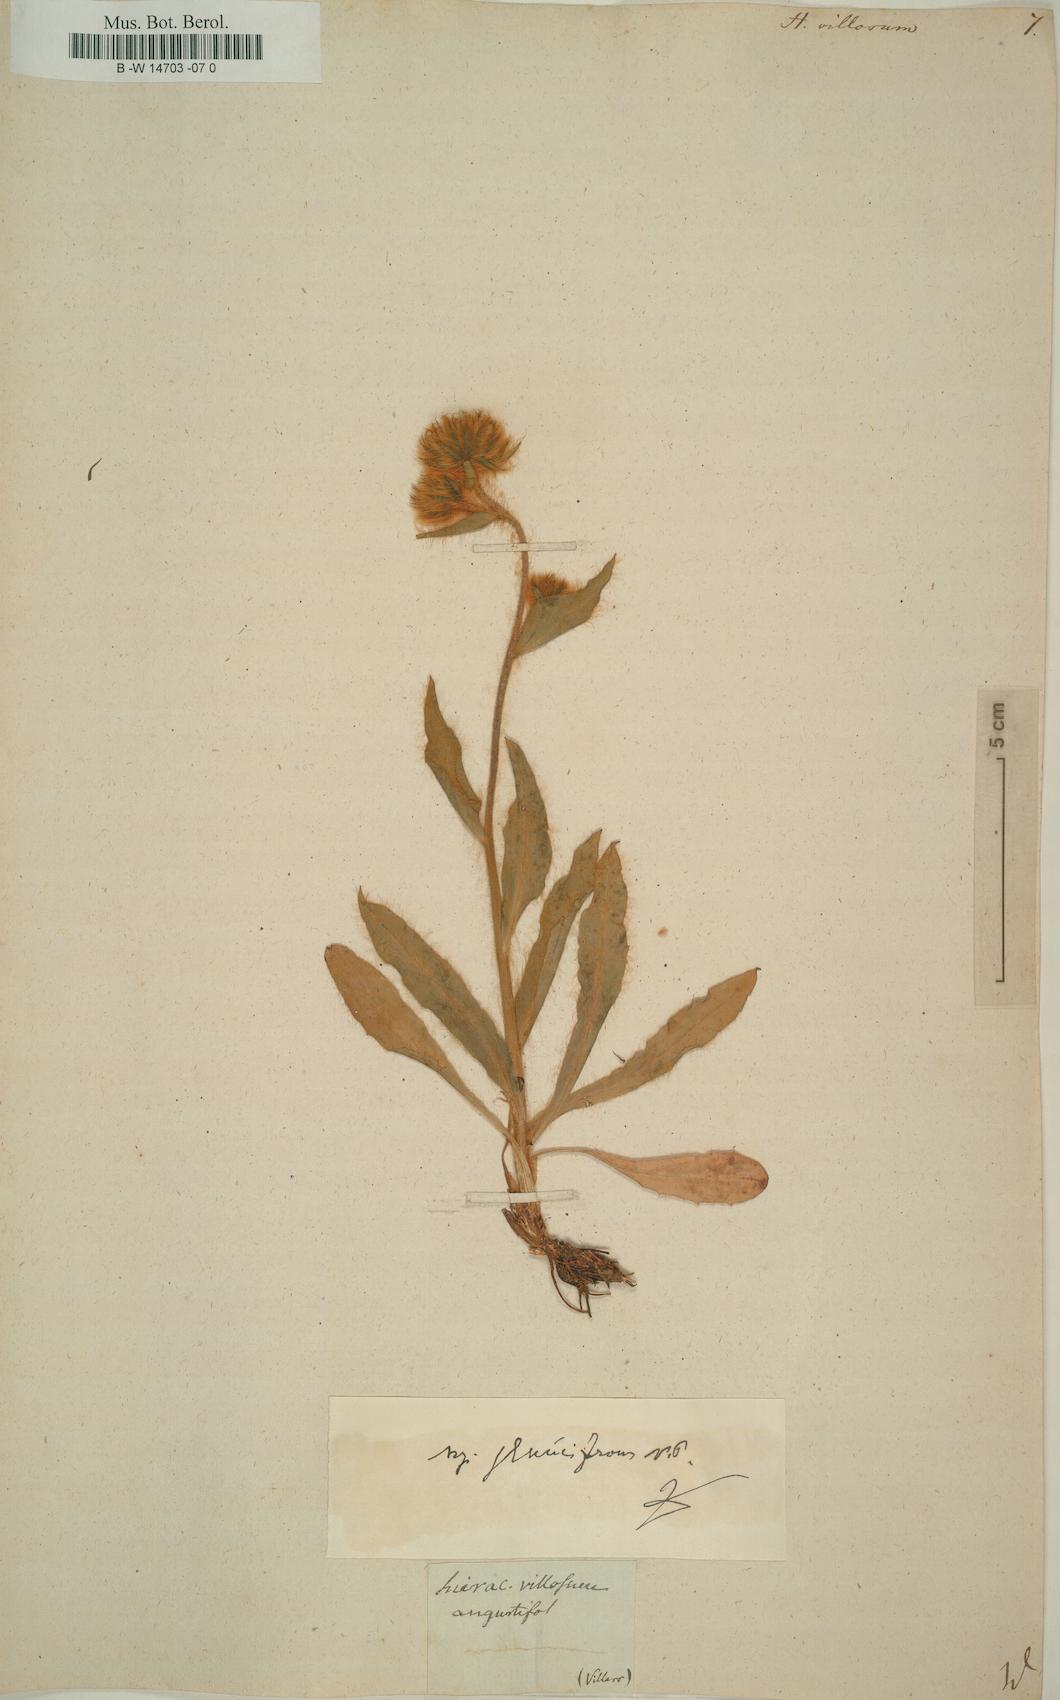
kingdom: Plantae
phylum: Tracheophyta
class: Magnoliopsida
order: Asterales
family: Asteraceae
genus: Hieracium
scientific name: Hieracium villosum
